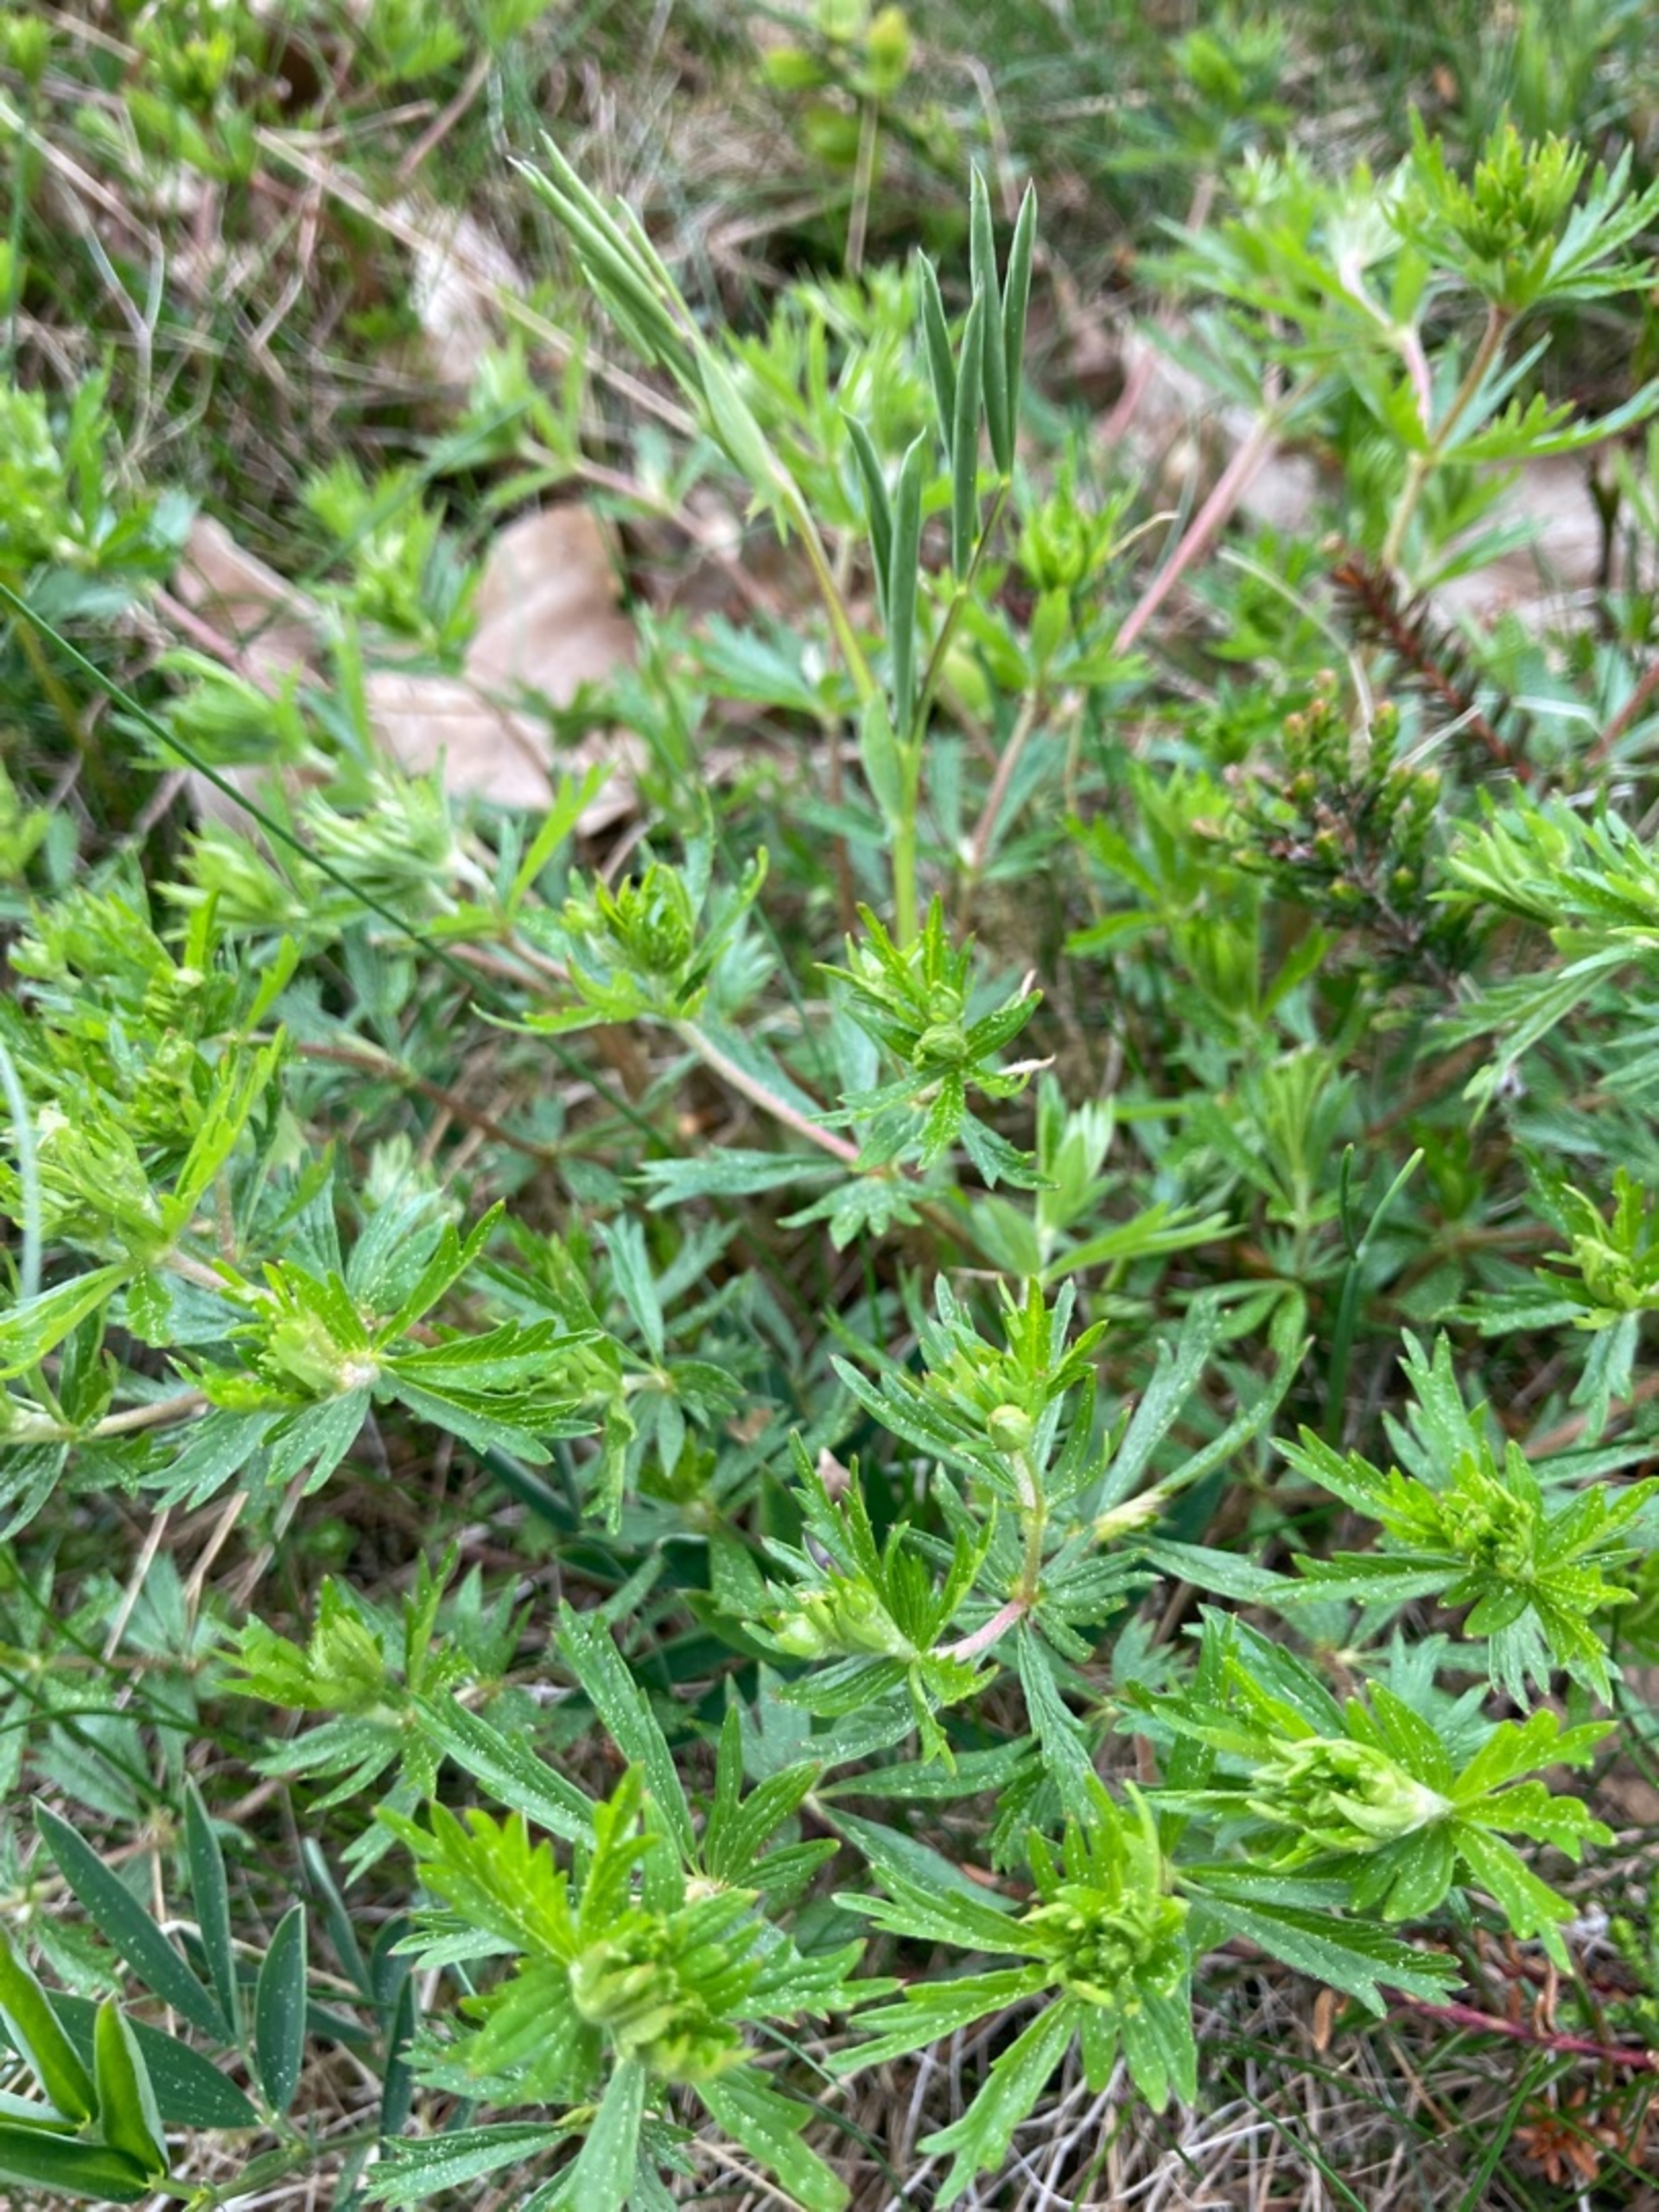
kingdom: Plantae
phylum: Tracheophyta
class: Magnoliopsida
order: Rosales
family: Rosaceae
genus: Potentilla
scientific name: Potentilla erecta
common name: Tormentil
